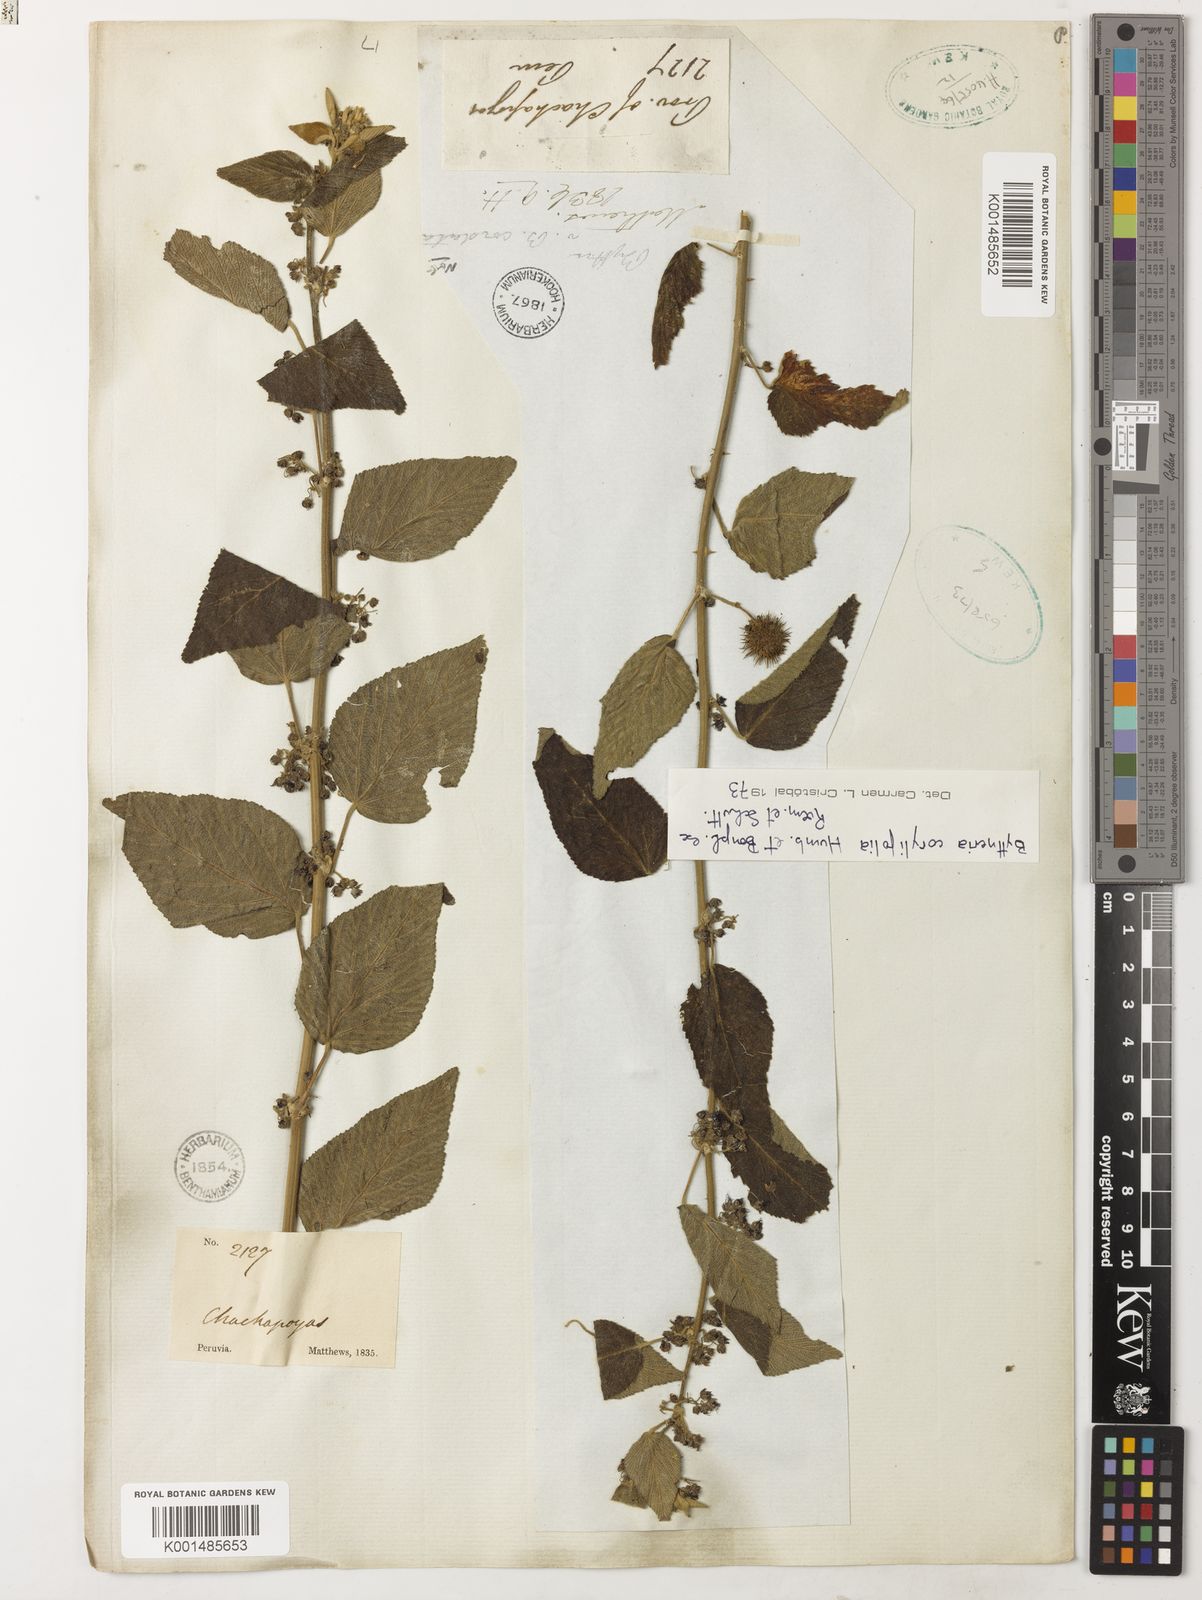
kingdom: Plantae
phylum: Tracheophyta
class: Magnoliopsida
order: Malvales
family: Malvaceae
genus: Byttneria
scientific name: Byttneria corylifolia
